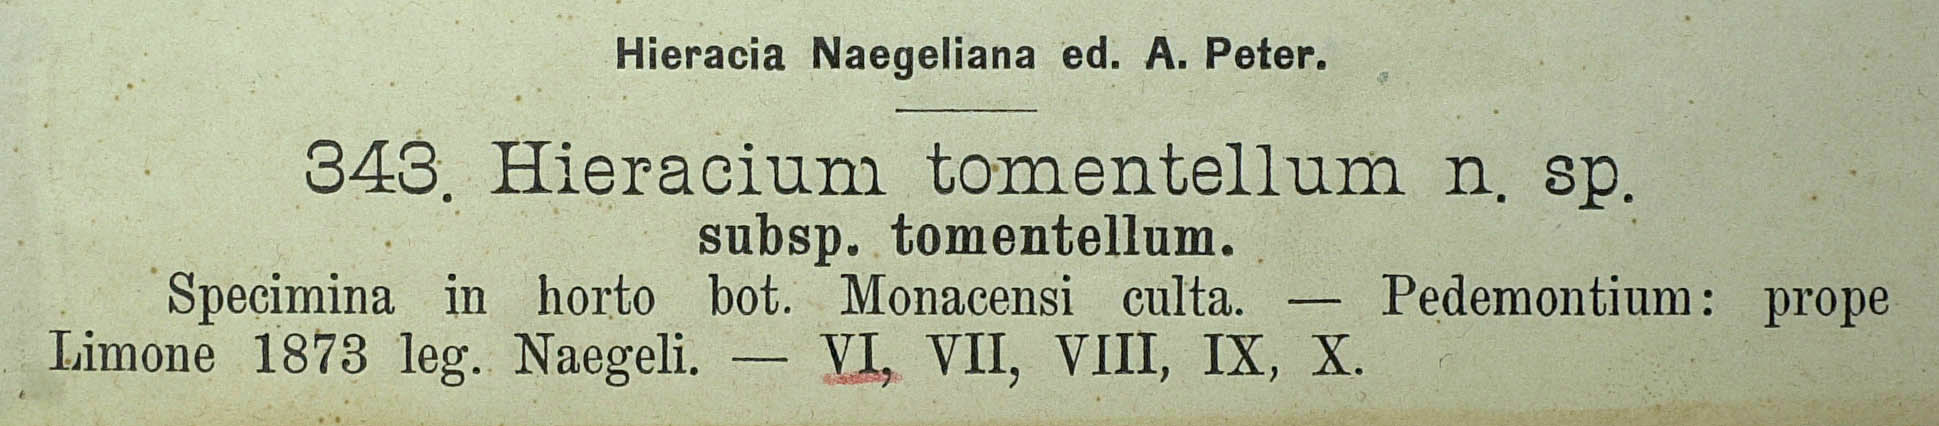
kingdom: Plantae
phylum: Tracheophyta
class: Magnoliopsida
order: Asterales
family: Asteraceae
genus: Hieracium
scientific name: Hieracium burnatii
